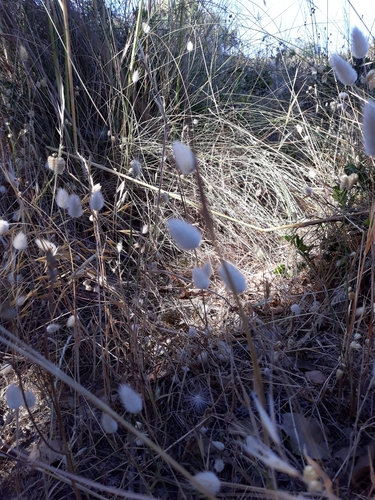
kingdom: Plantae
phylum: Tracheophyta
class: Liliopsida
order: Poales
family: Poaceae
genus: Lagurus
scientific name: Lagurus ovatus
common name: Hare's-tail
